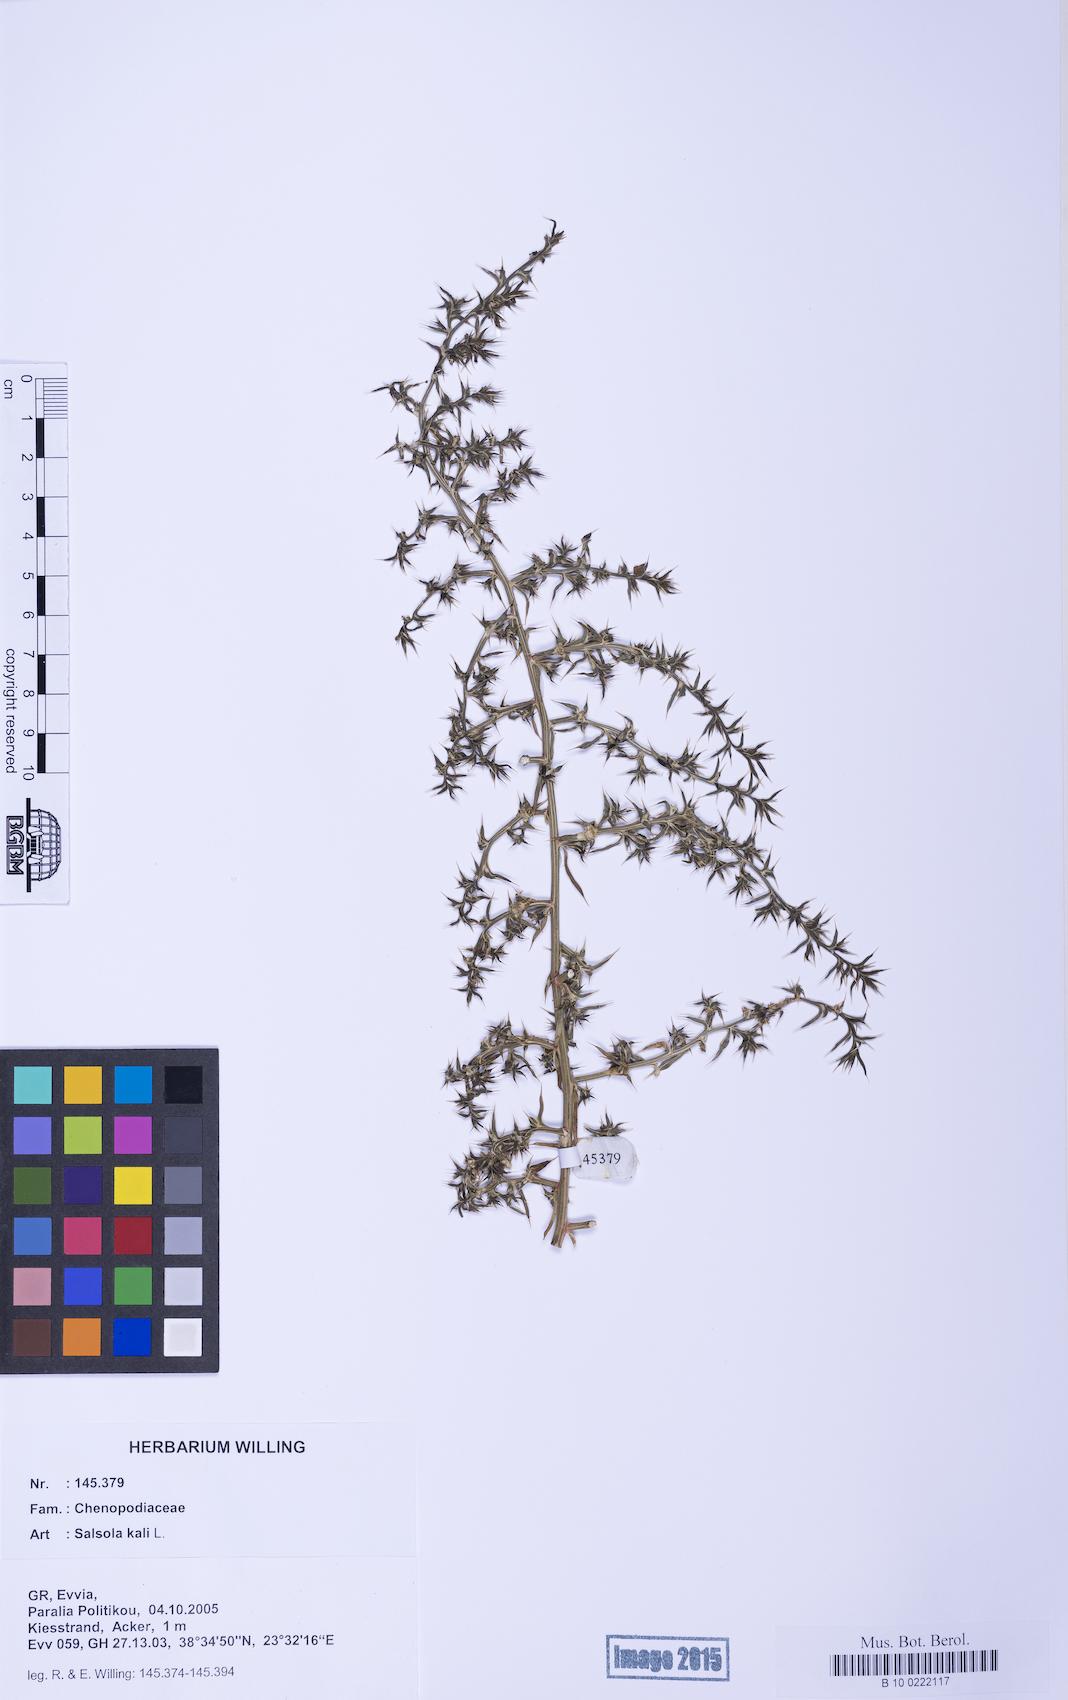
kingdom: Plantae
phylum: Tracheophyta
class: Magnoliopsida
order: Caryophyllales
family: Amaranthaceae
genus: Salsola
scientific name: Salsola kali
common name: Saltwort
